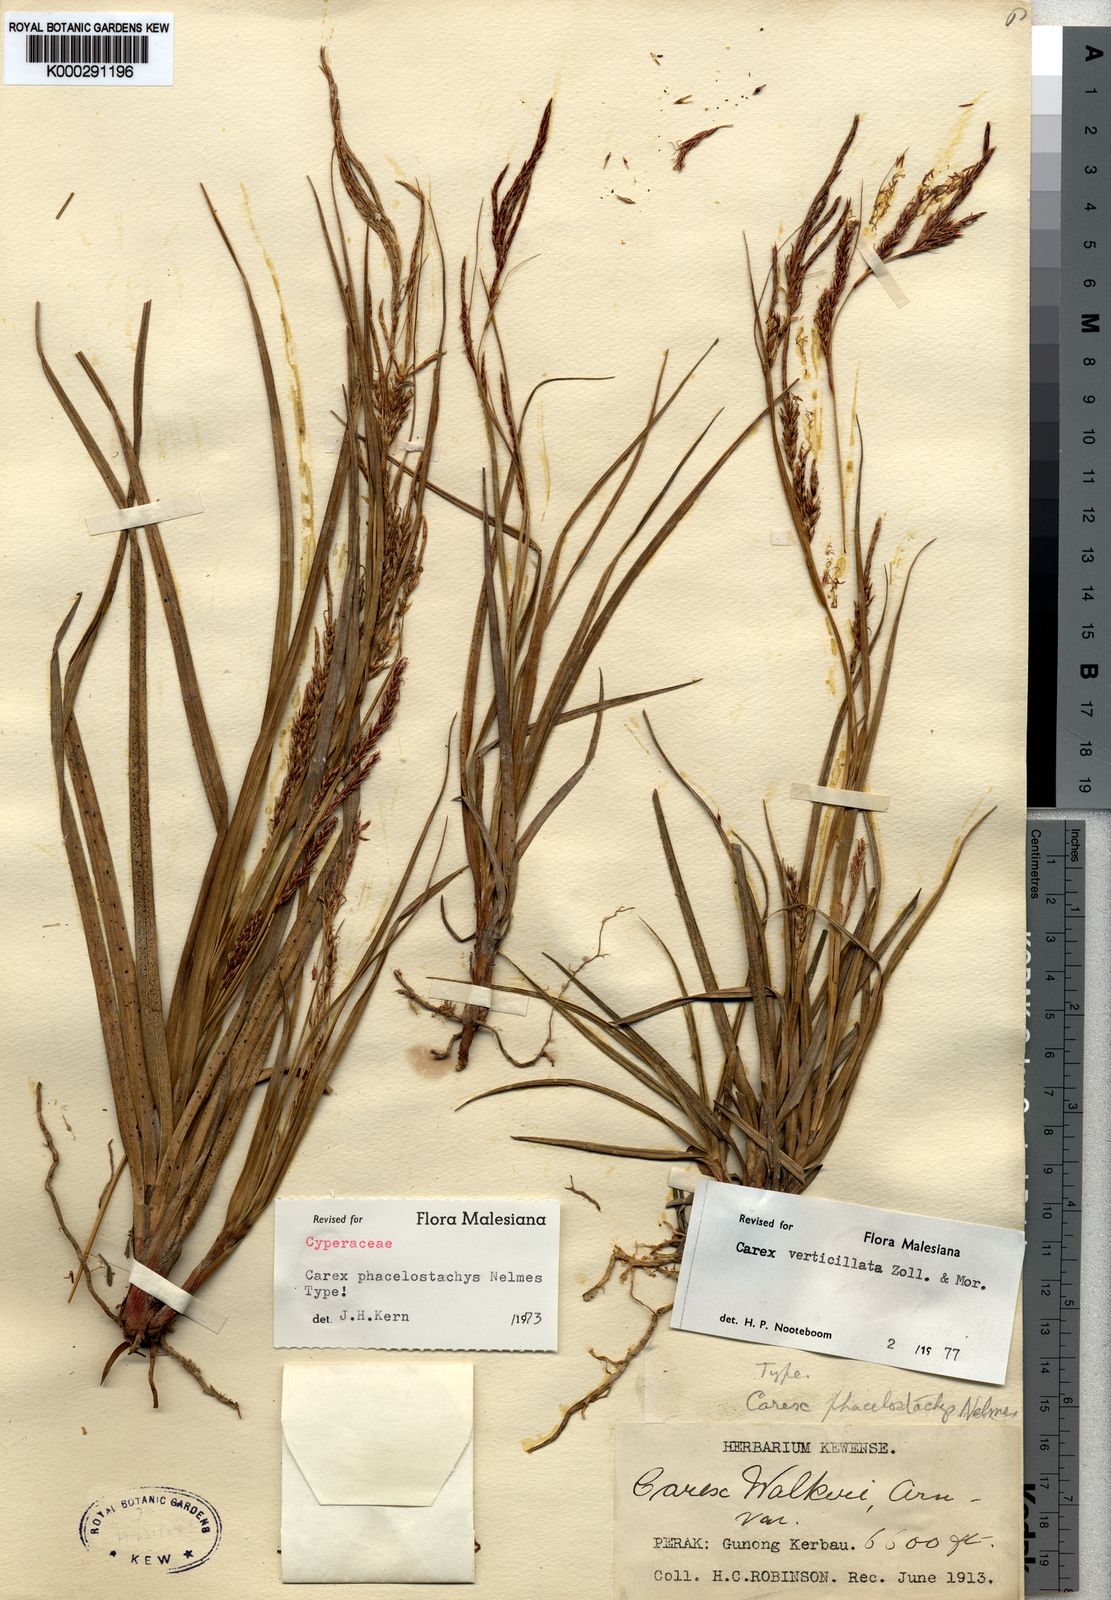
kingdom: Plantae
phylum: Tracheophyta
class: Liliopsida
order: Poales
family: Cyperaceae
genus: Carex
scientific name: Carex verticillata
